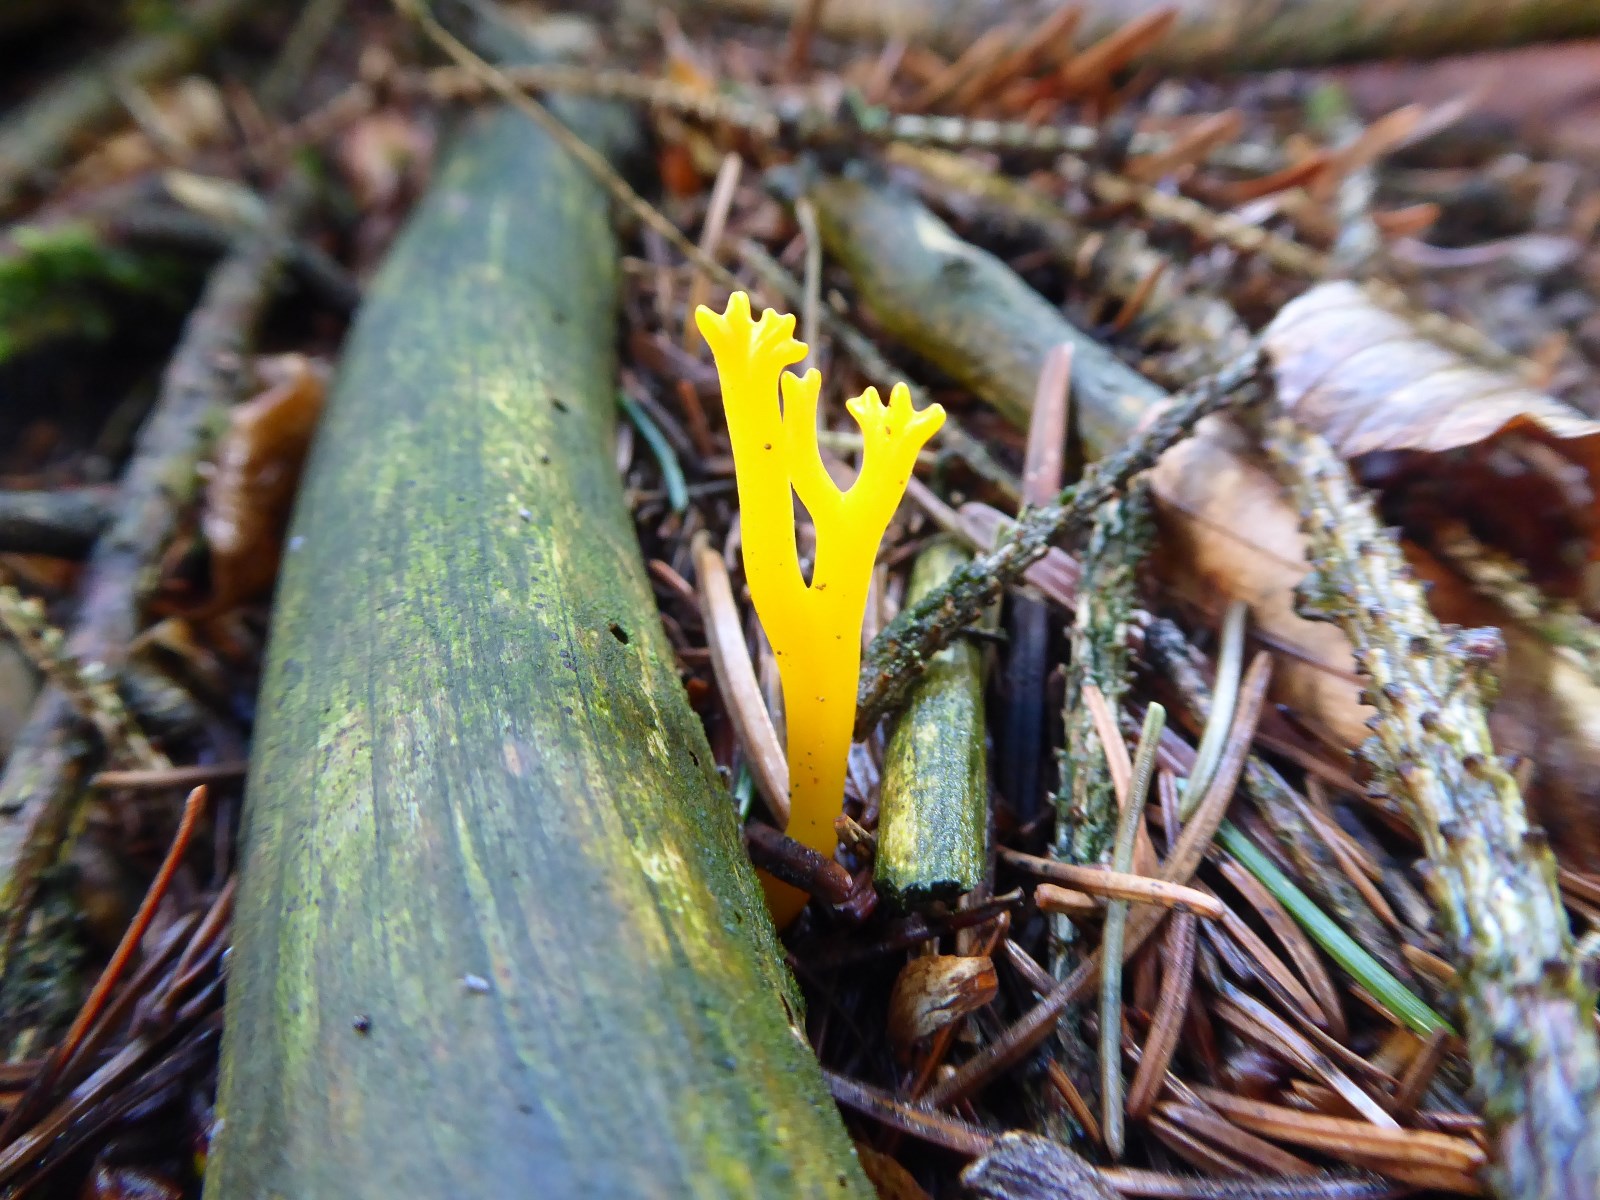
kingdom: Fungi
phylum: Basidiomycota
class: Dacrymycetes
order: Dacrymycetales
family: Dacrymycetaceae
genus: Calocera
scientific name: Calocera viscosa
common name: almindelig guldgaffel
